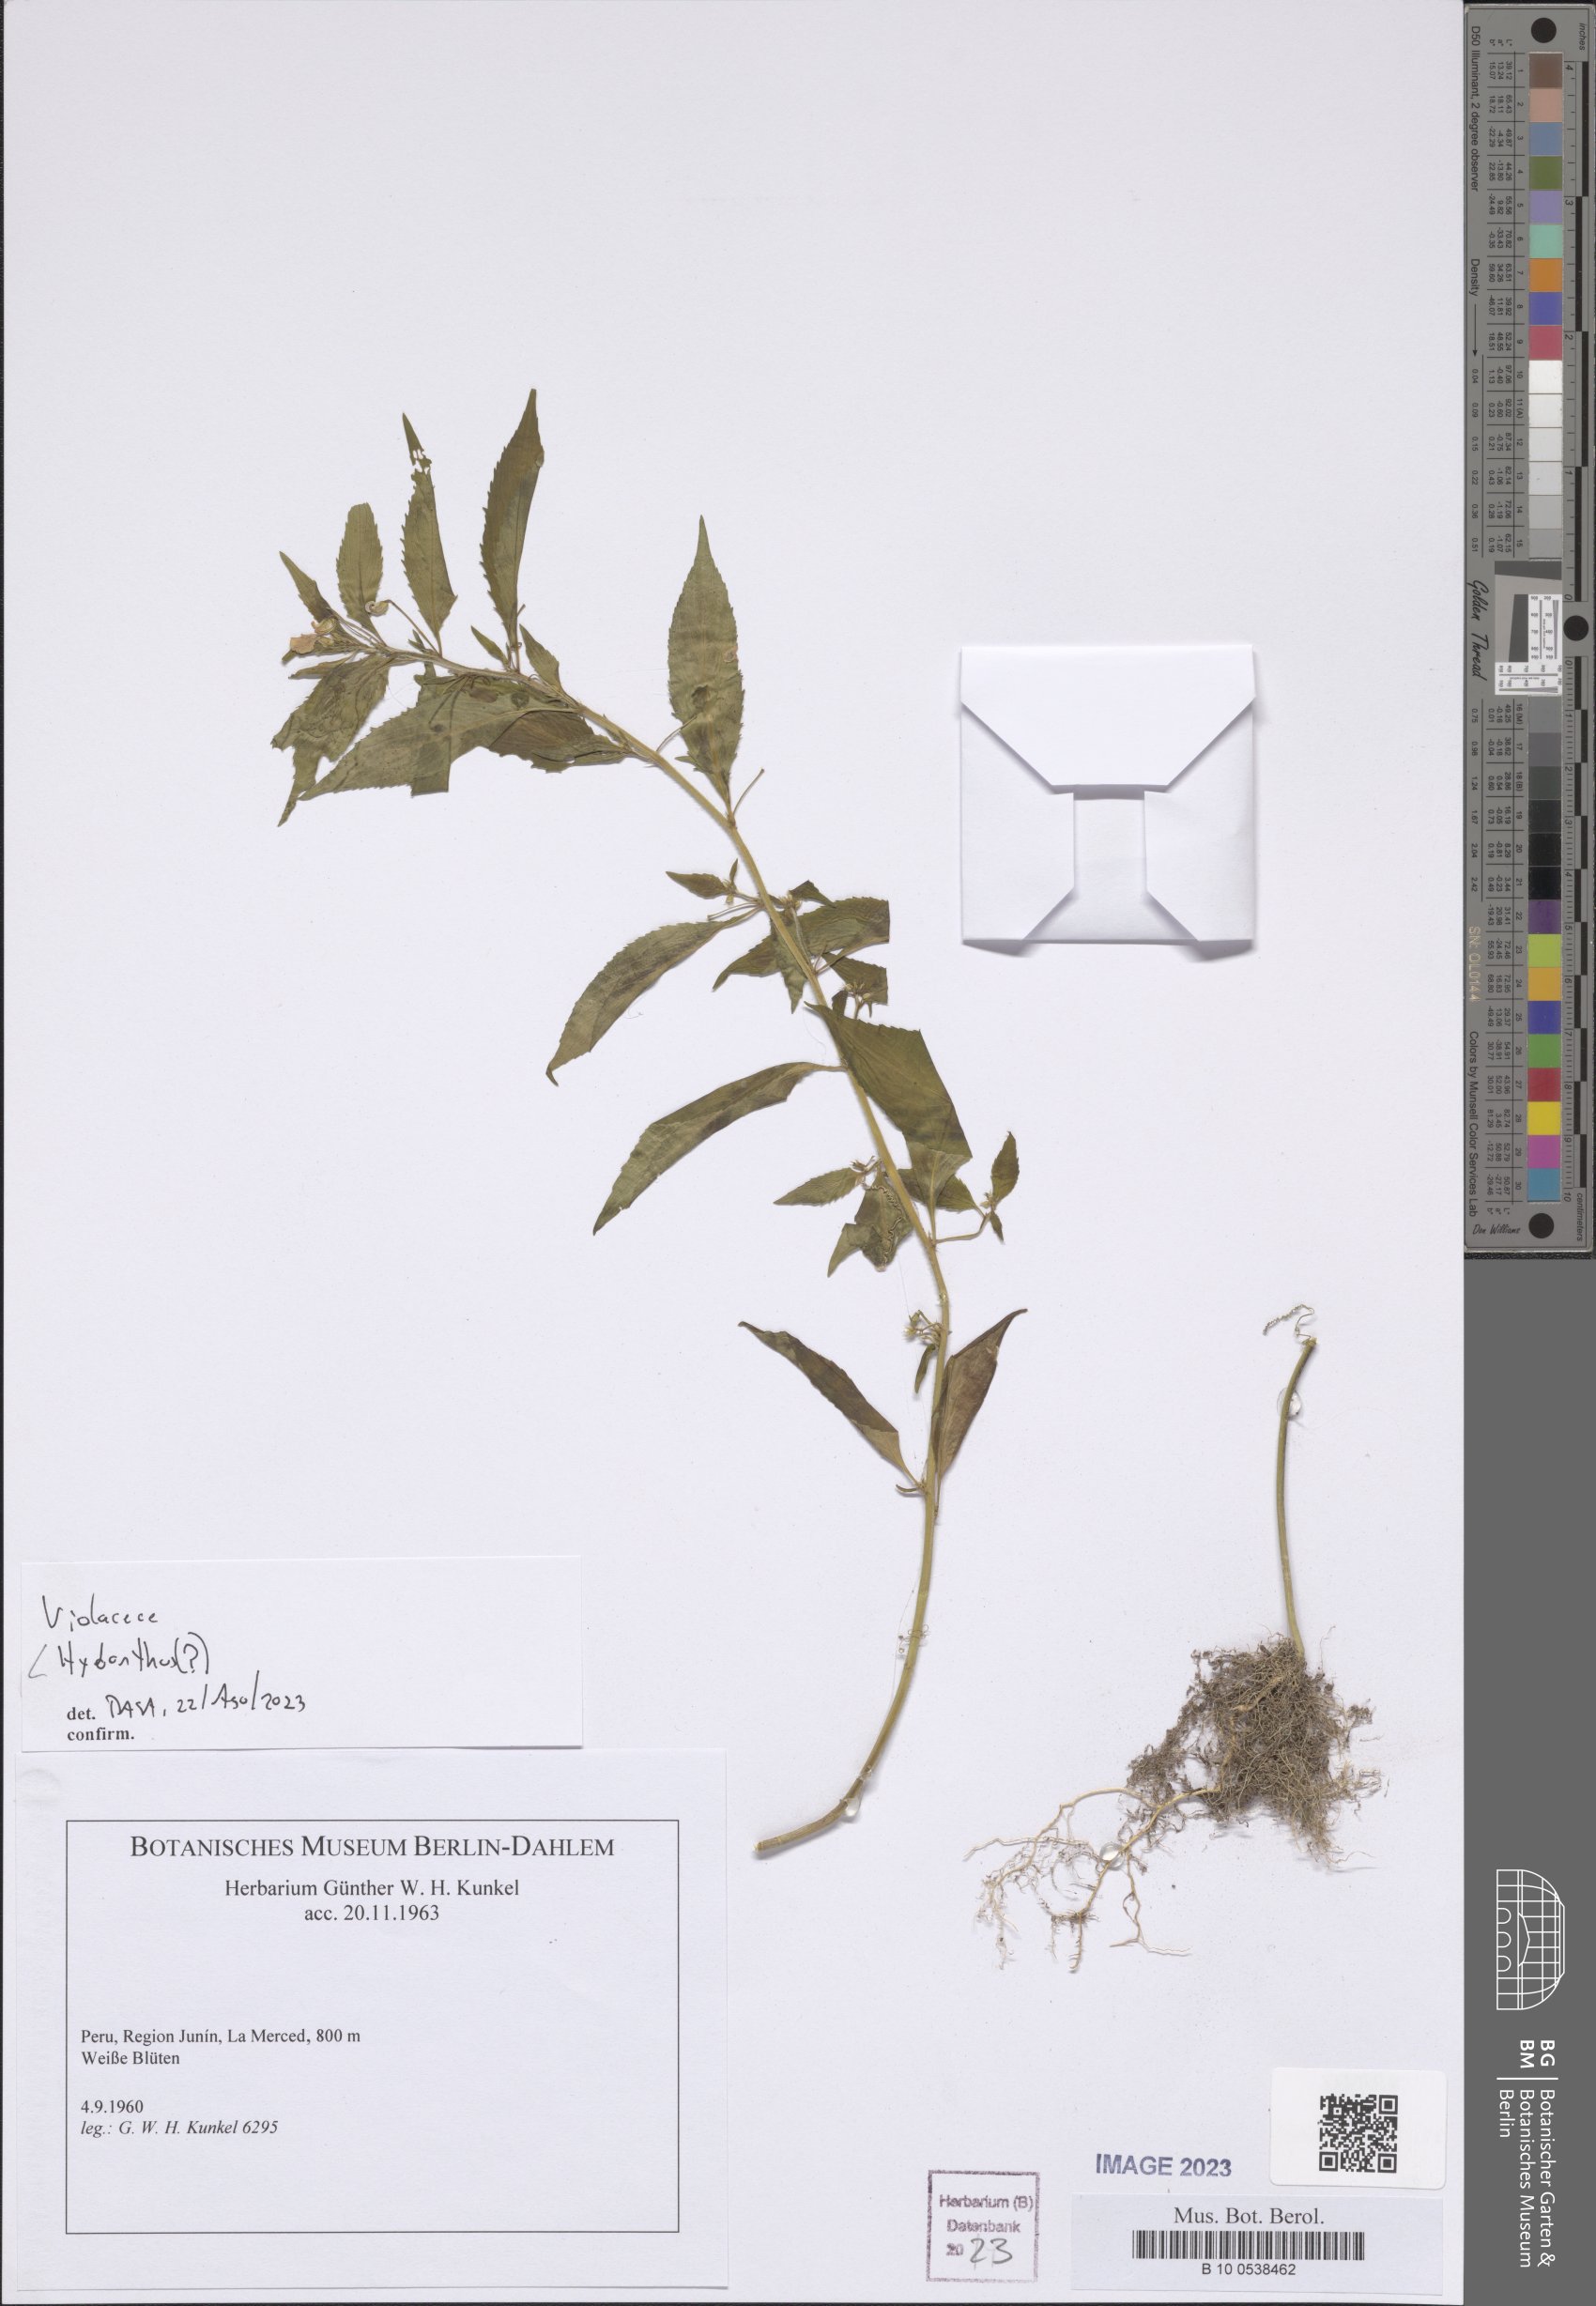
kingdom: Plantae
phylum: Tracheophyta
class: Magnoliopsida
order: Malpighiales
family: Violaceae
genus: Hybanthus
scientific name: Hybanthus
